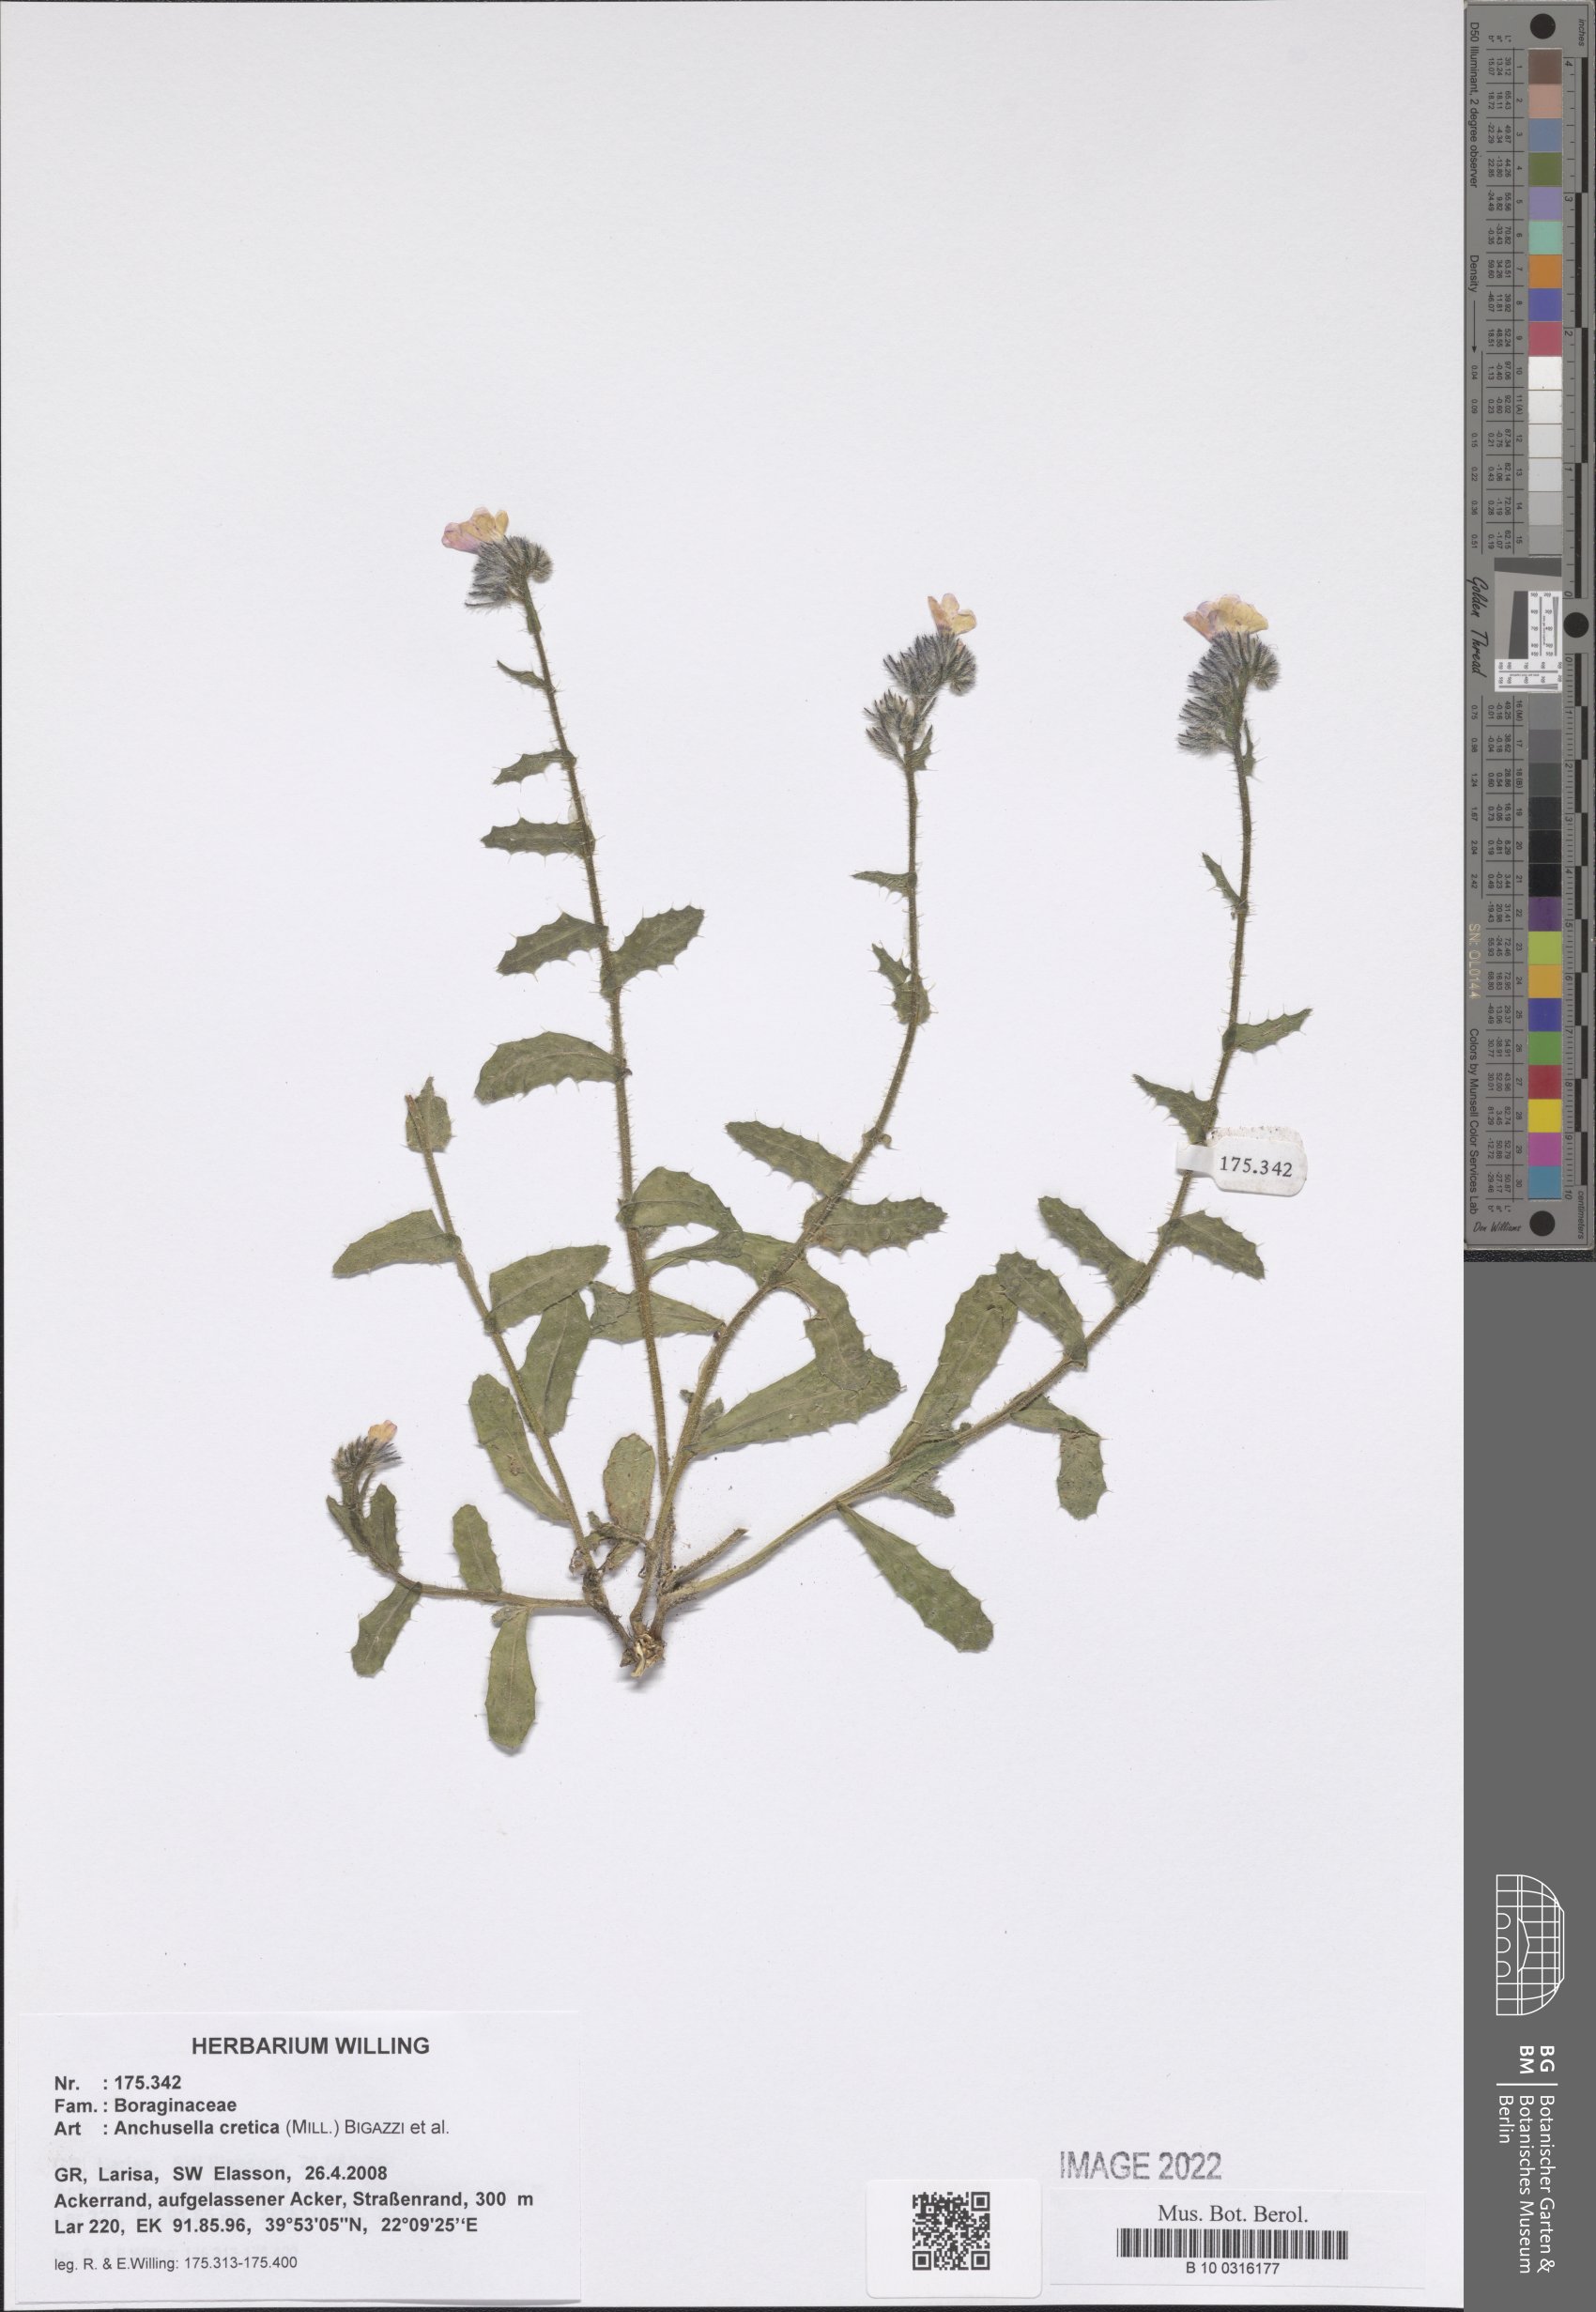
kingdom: Plantae
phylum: Tracheophyta
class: Magnoliopsida
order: Boraginales
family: Boraginaceae
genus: Anchusella
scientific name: Anchusella cretica
